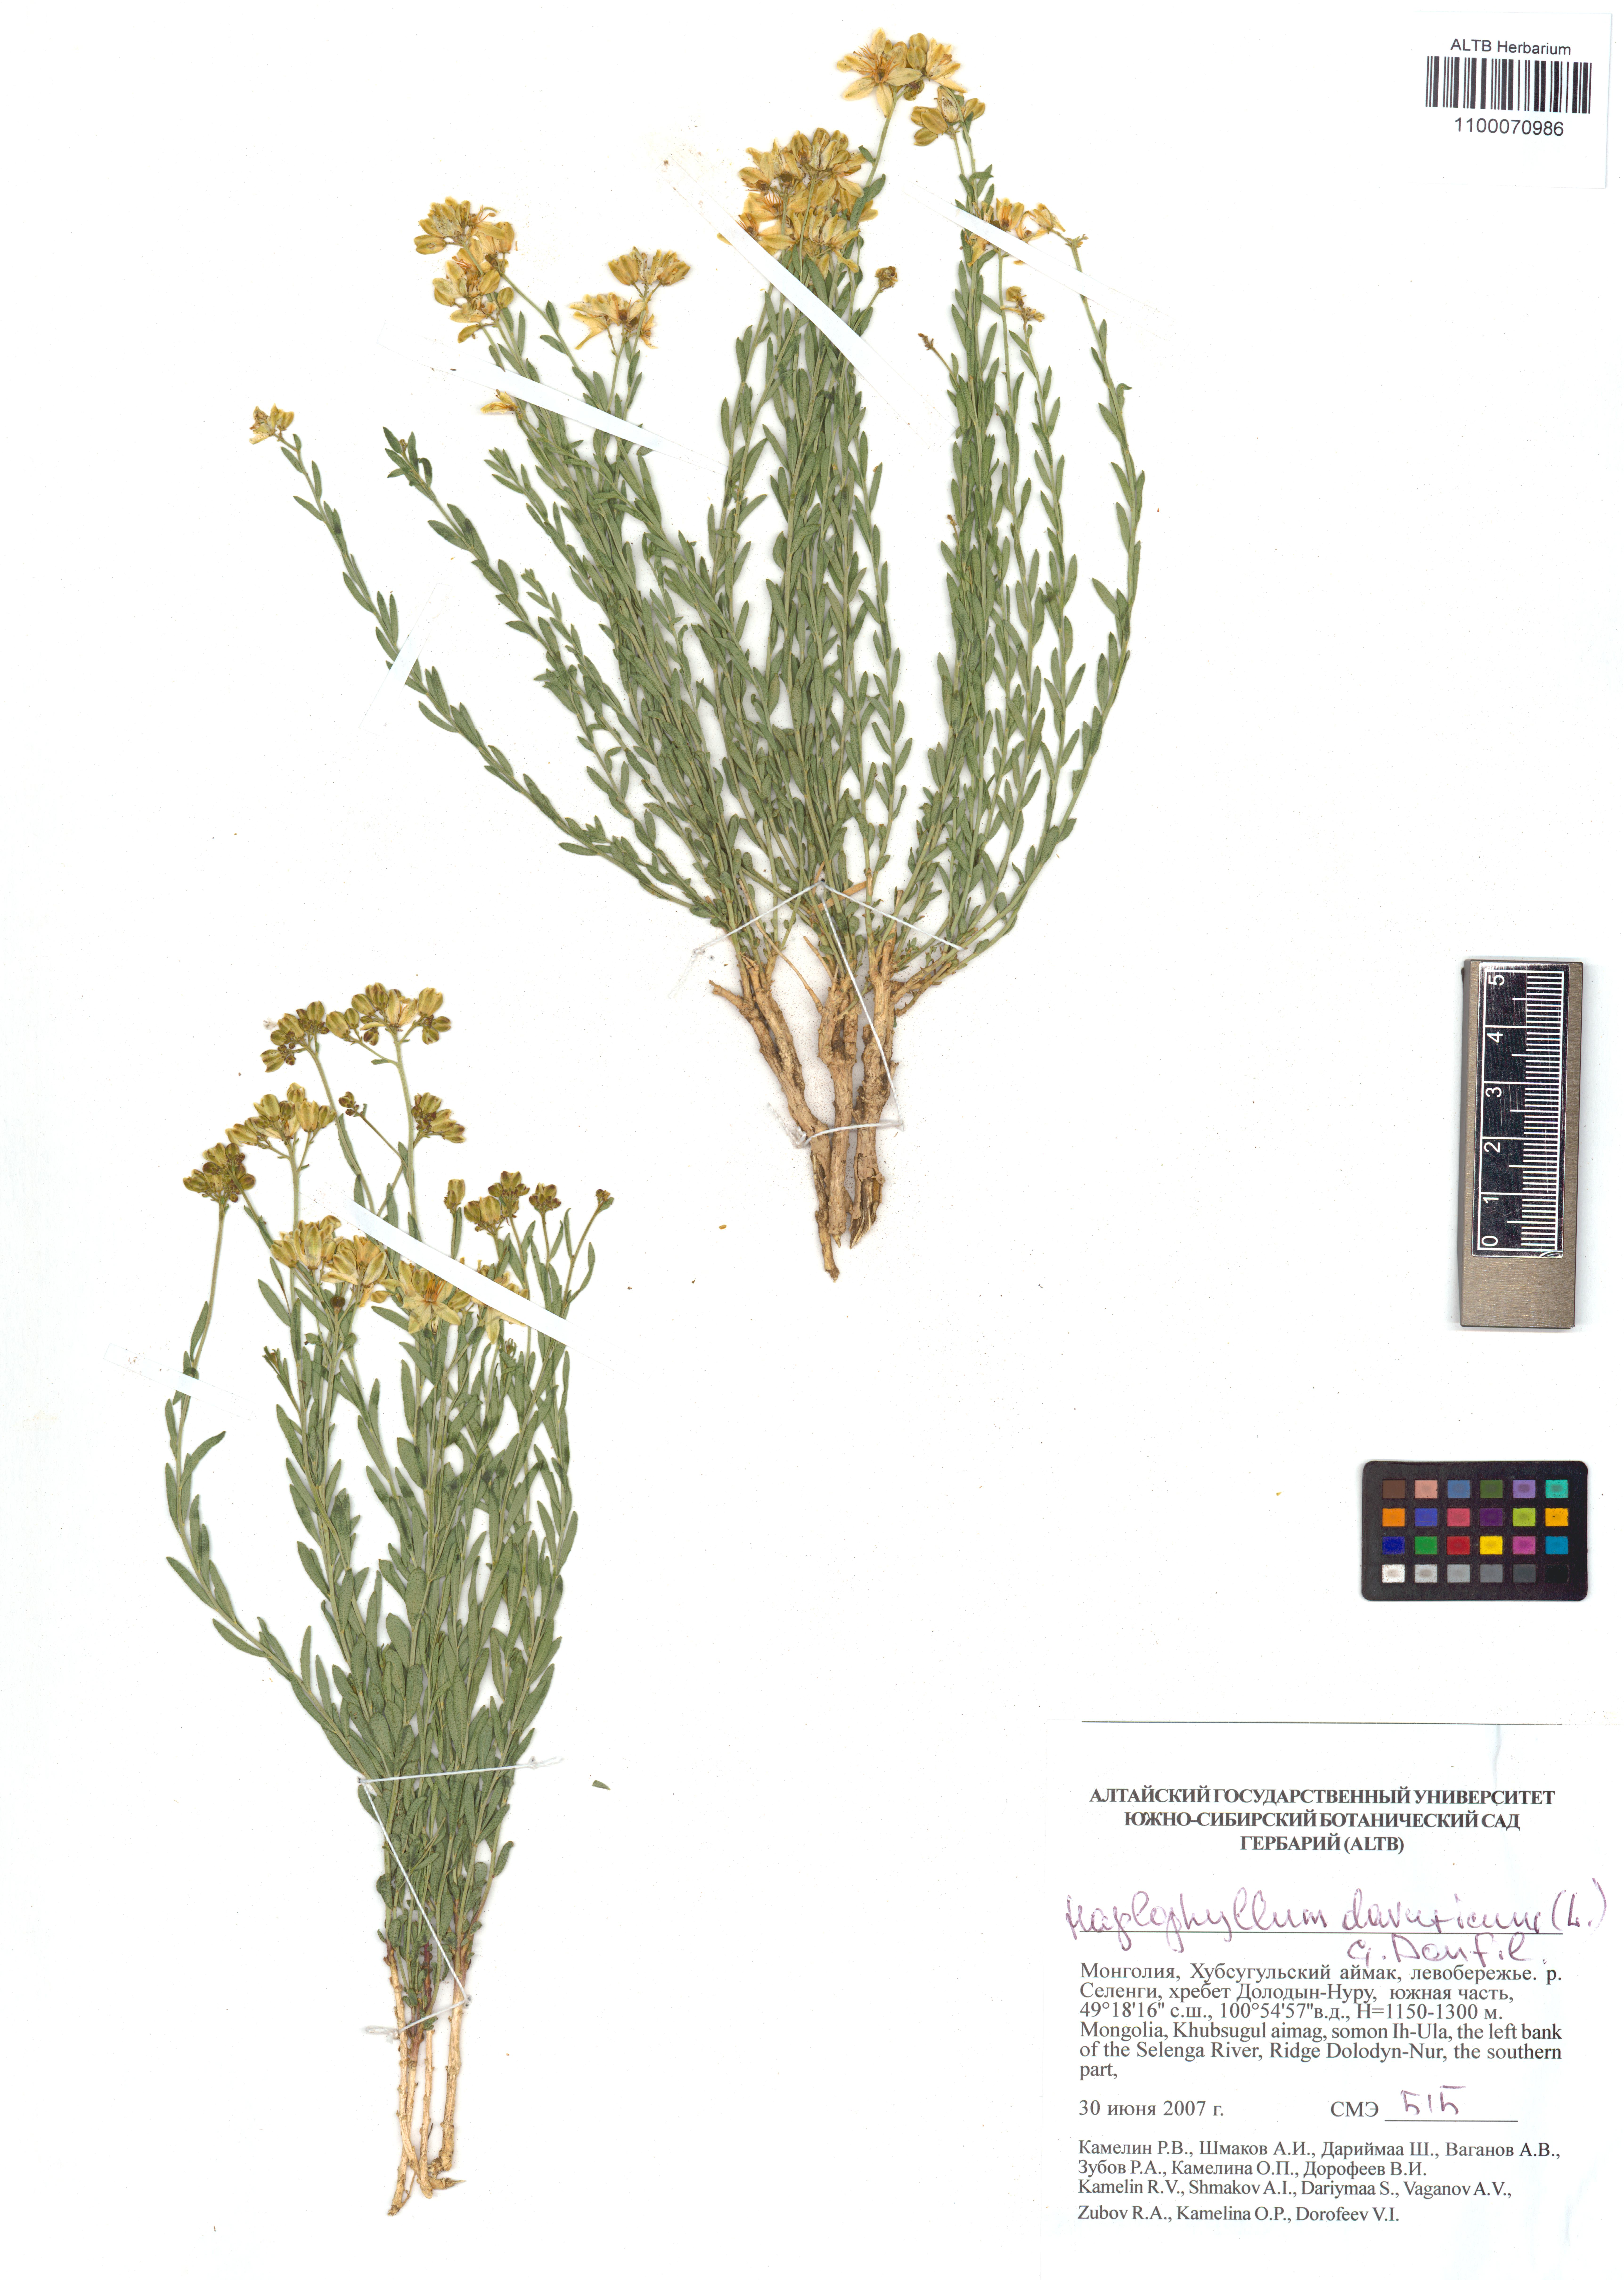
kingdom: Plantae
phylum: Tracheophyta
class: Magnoliopsida
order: Sapindales
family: Rutaceae
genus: Haplophyllum
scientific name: Haplophyllum dauricum
